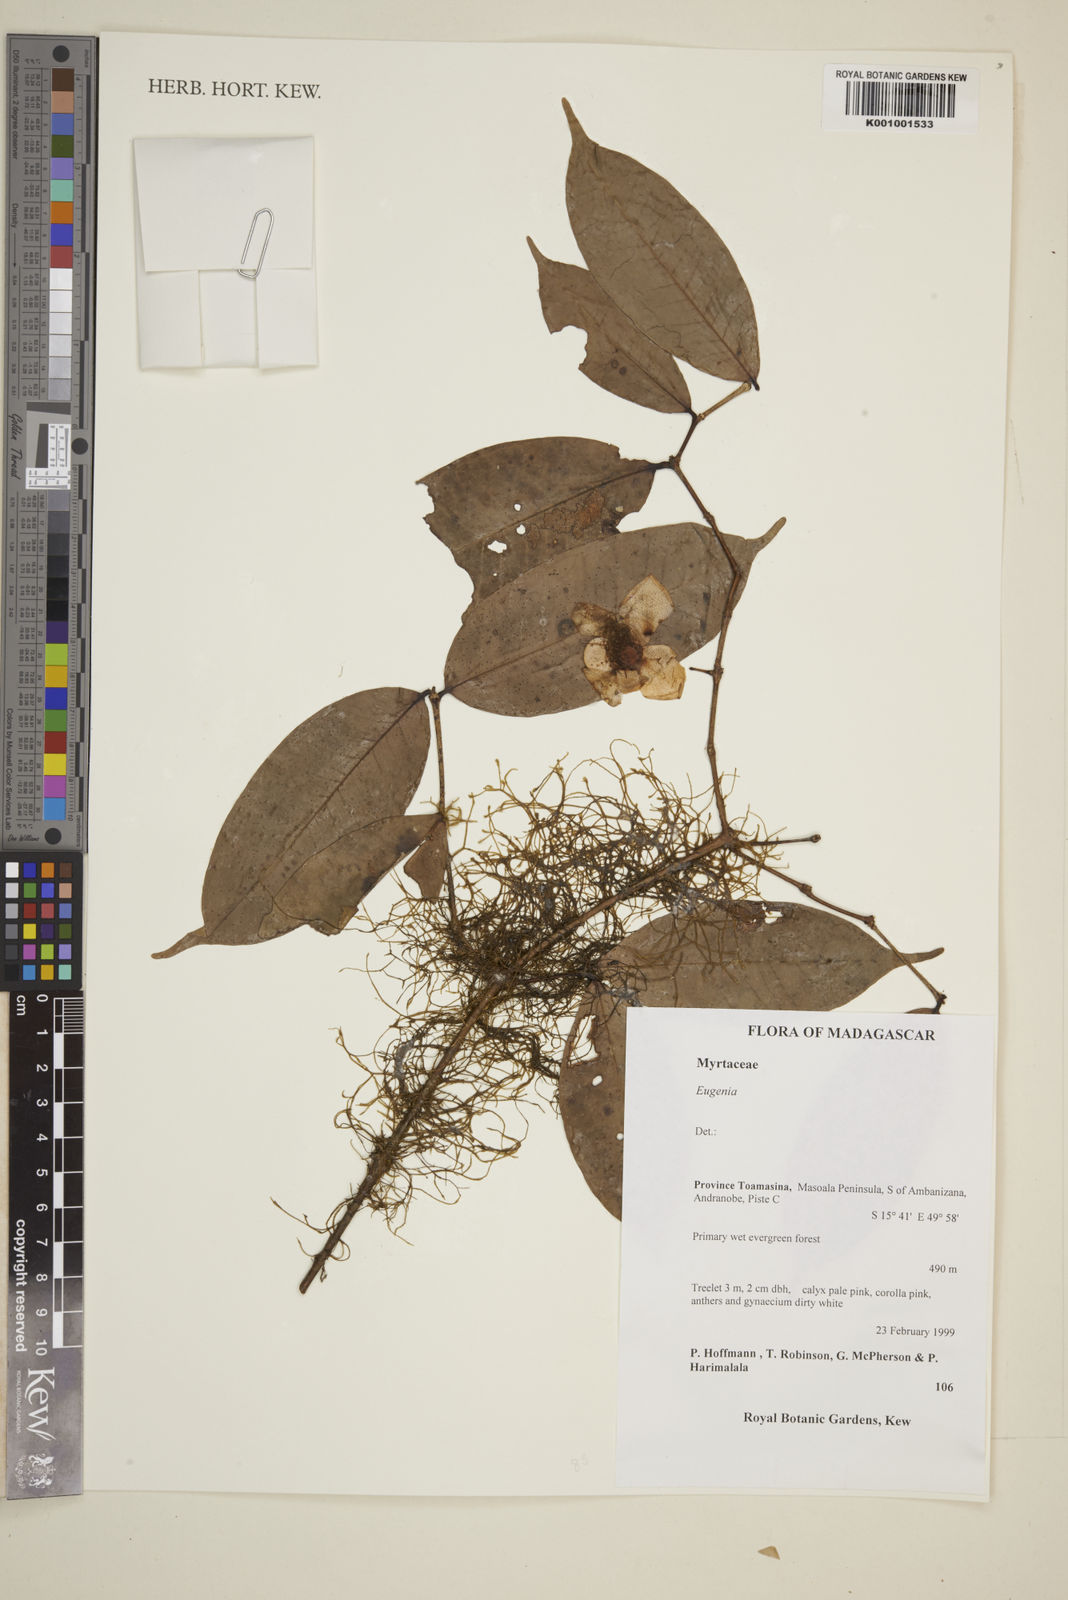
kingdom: Plantae
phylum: Tracheophyta
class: Magnoliopsida
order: Myrtales
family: Myrtaceae
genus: Eugenia
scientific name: Eugenia
